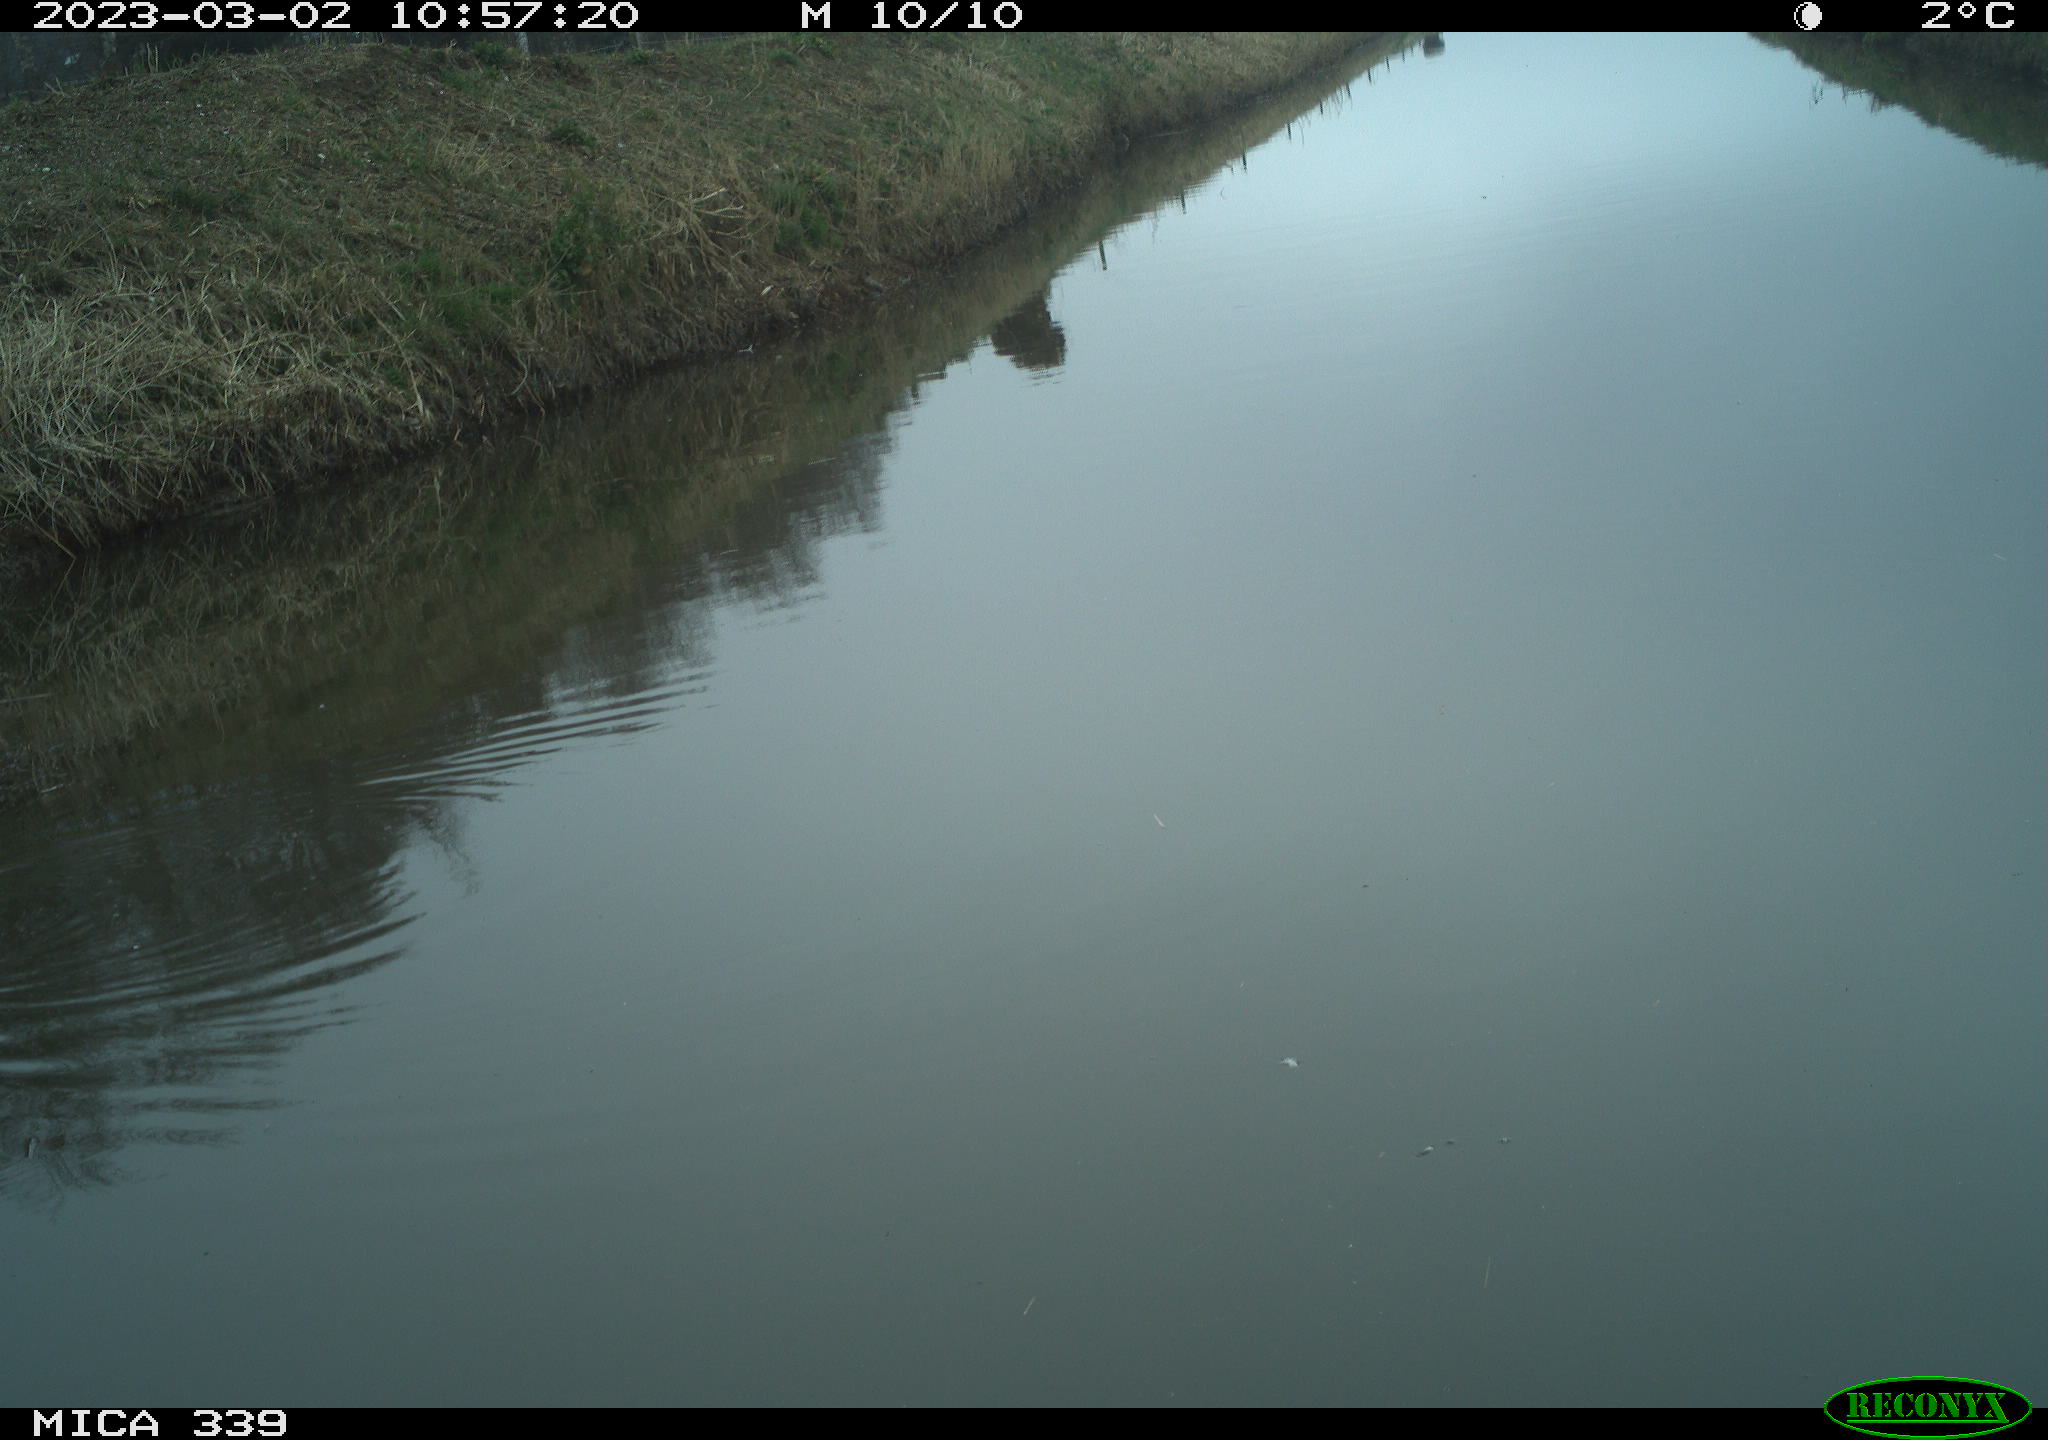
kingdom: Animalia
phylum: Chordata
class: Aves
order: Gruiformes
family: Rallidae
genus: Gallinula
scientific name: Gallinula chloropus
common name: Common moorhen
